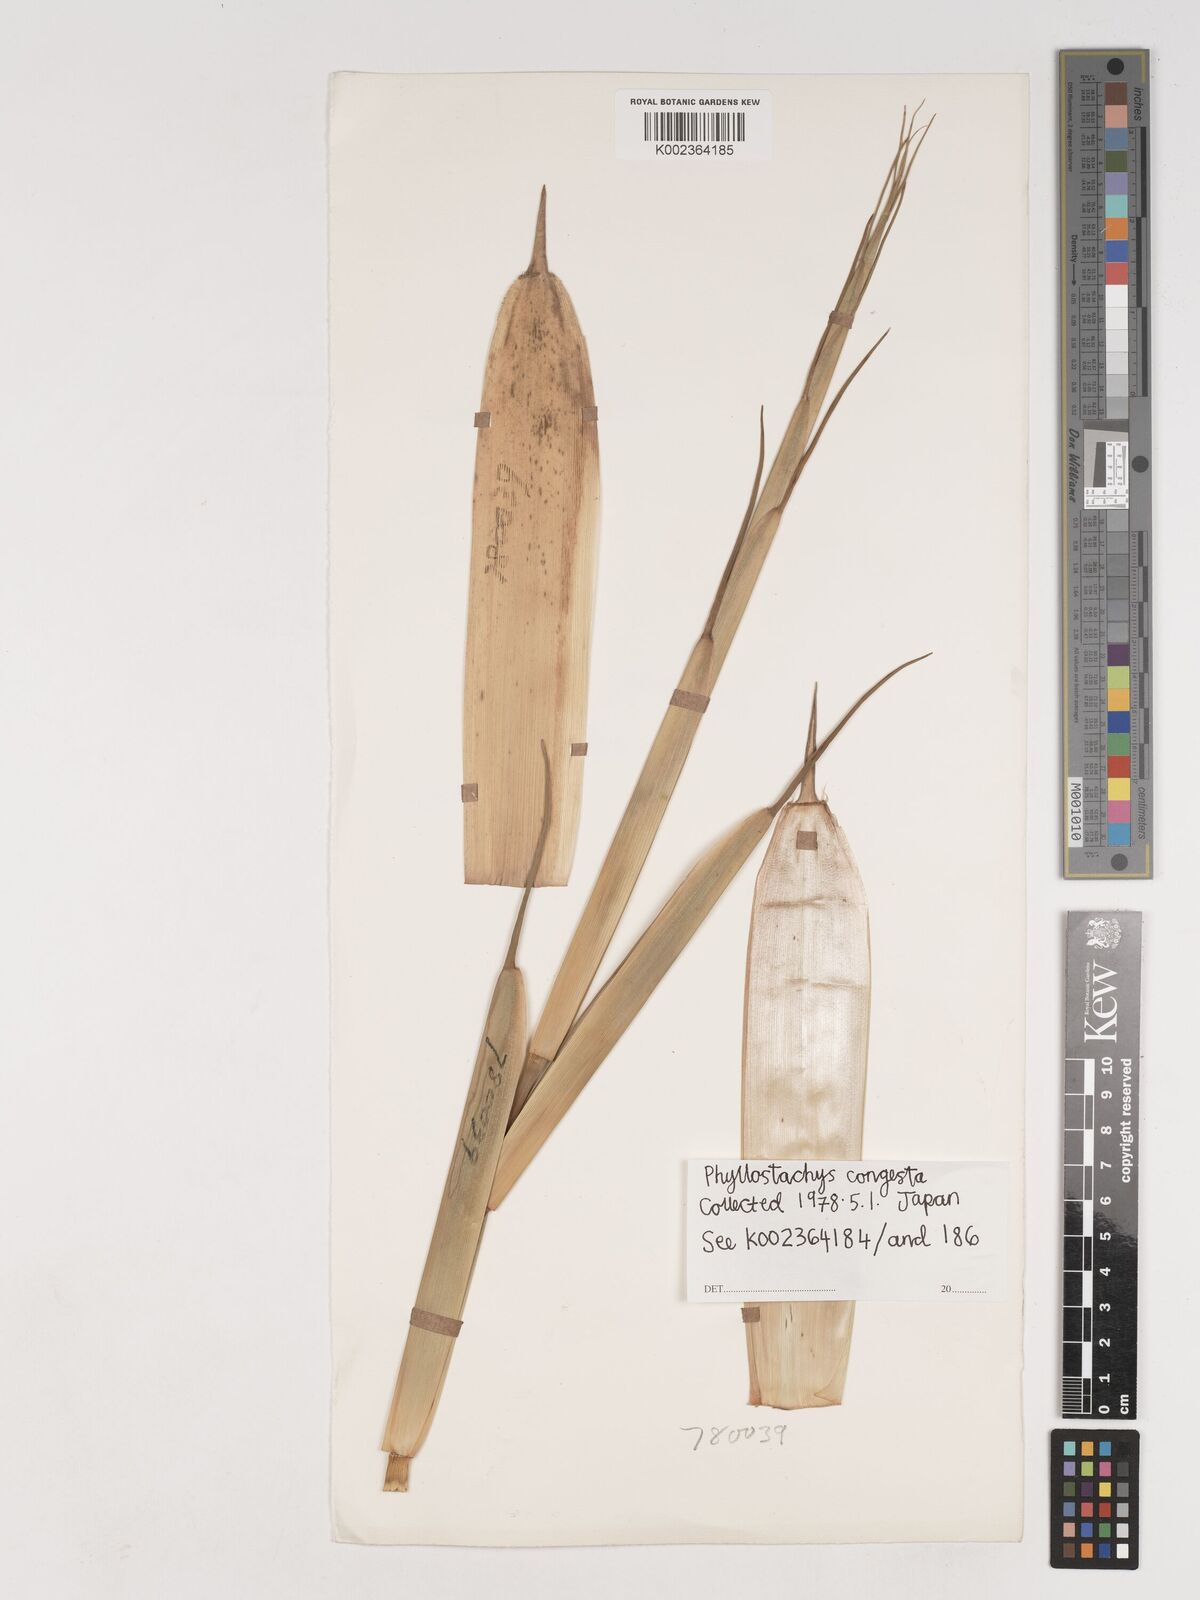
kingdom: Plantae
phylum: Tracheophyta
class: Liliopsida
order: Poales
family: Poaceae
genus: Phyllostachys
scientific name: Phyllostachys heteroclada
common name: Fishscale bamboo
